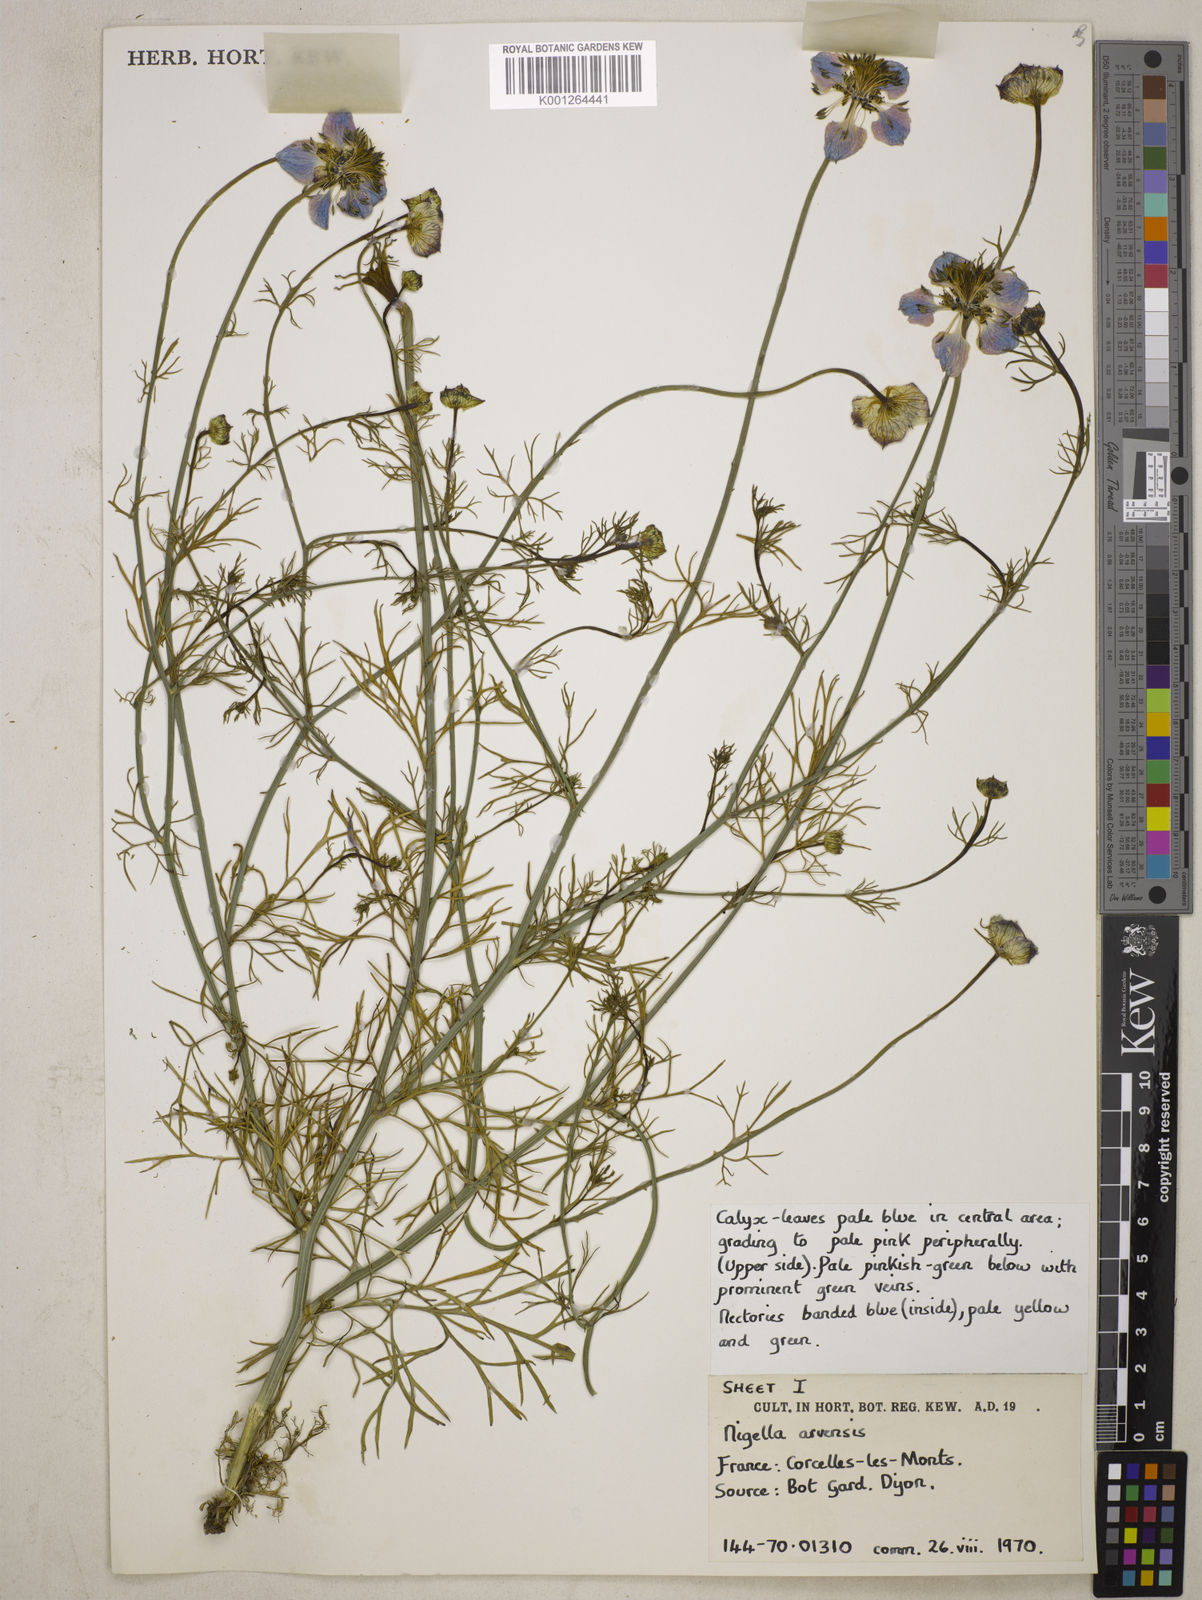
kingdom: Plantae
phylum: Tracheophyta
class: Magnoliopsida
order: Ranunculales
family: Ranunculaceae
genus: Nigella
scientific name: Nigella arvensis
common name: Wild fennel-flower
